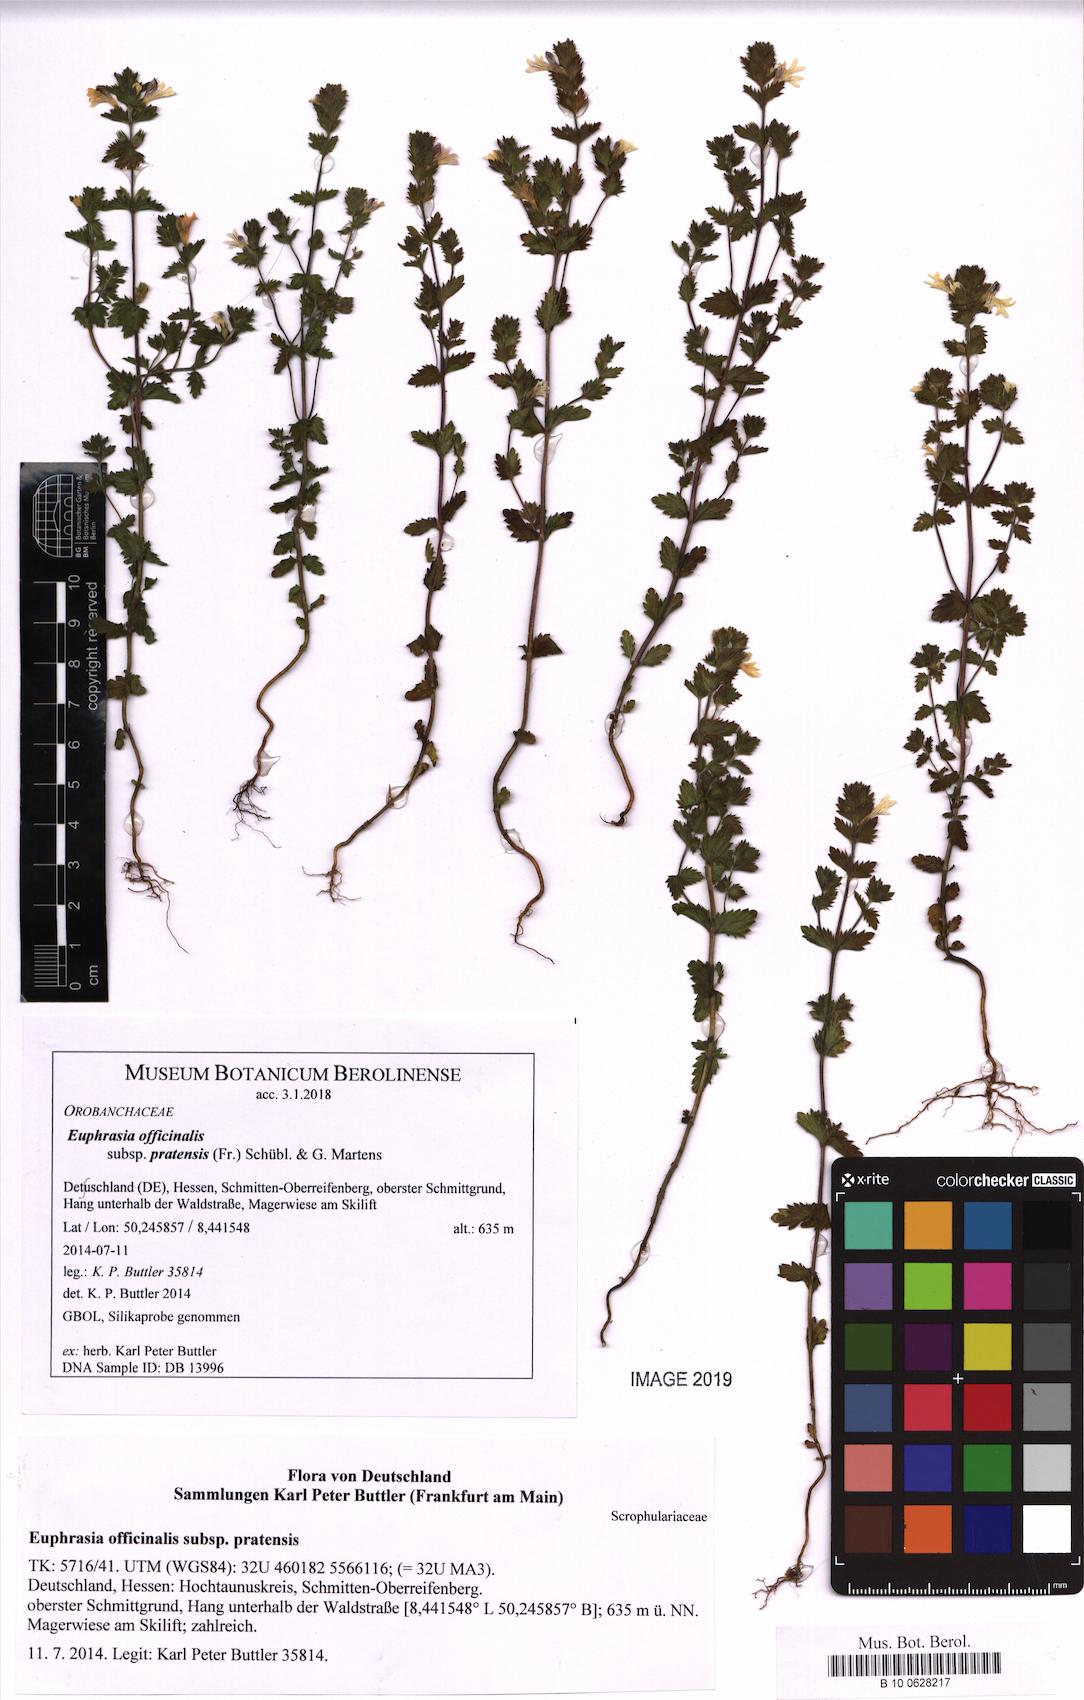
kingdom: Plantae
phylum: Tracheophyta
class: Magnoliopsida
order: Lamiales
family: Orobanchaceae
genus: Euphrasia
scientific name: Euphrasia officinalis
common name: Eyebright
